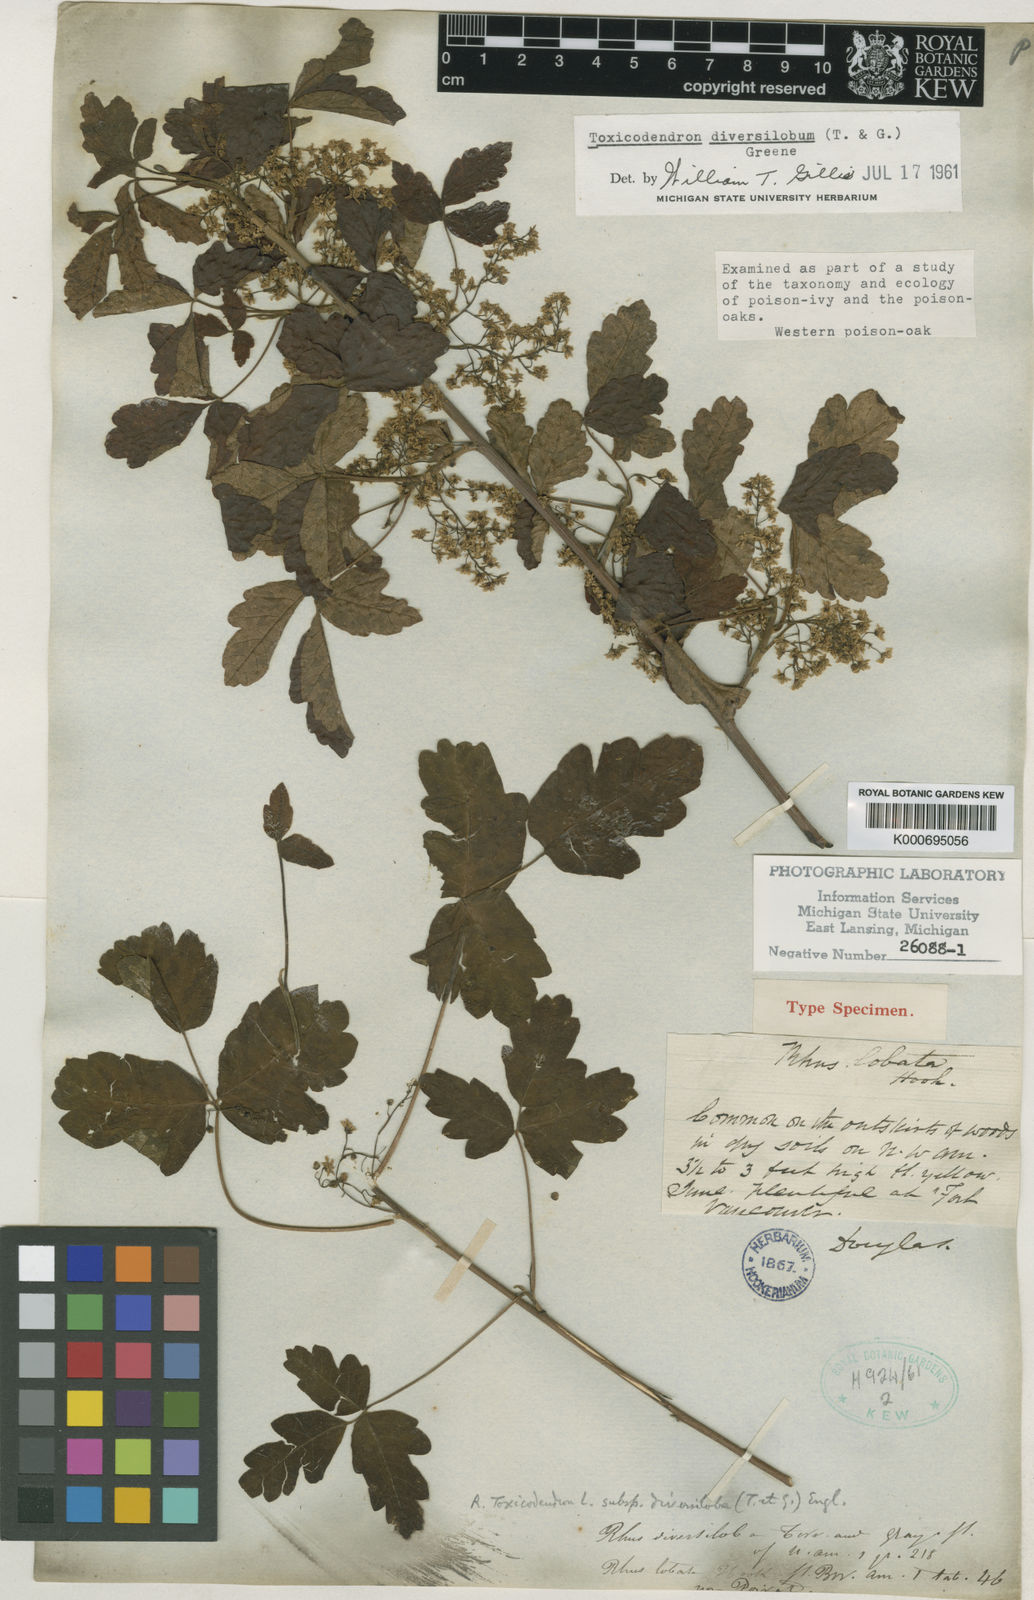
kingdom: Plantae
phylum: Tracheophyta
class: Magnoliopsida
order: Sapindales
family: Anacardiaceae
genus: Toxicodendron
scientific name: Toxicodendron
